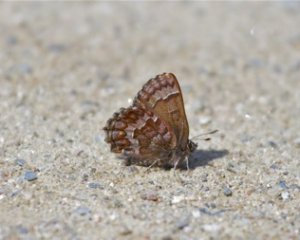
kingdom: Animalia
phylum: Arthropoda
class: Insecta
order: Lepidoptera
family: Lycaenidae
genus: Incisalia
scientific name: Incisalia niphon
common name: Eastern Pine Elfin
